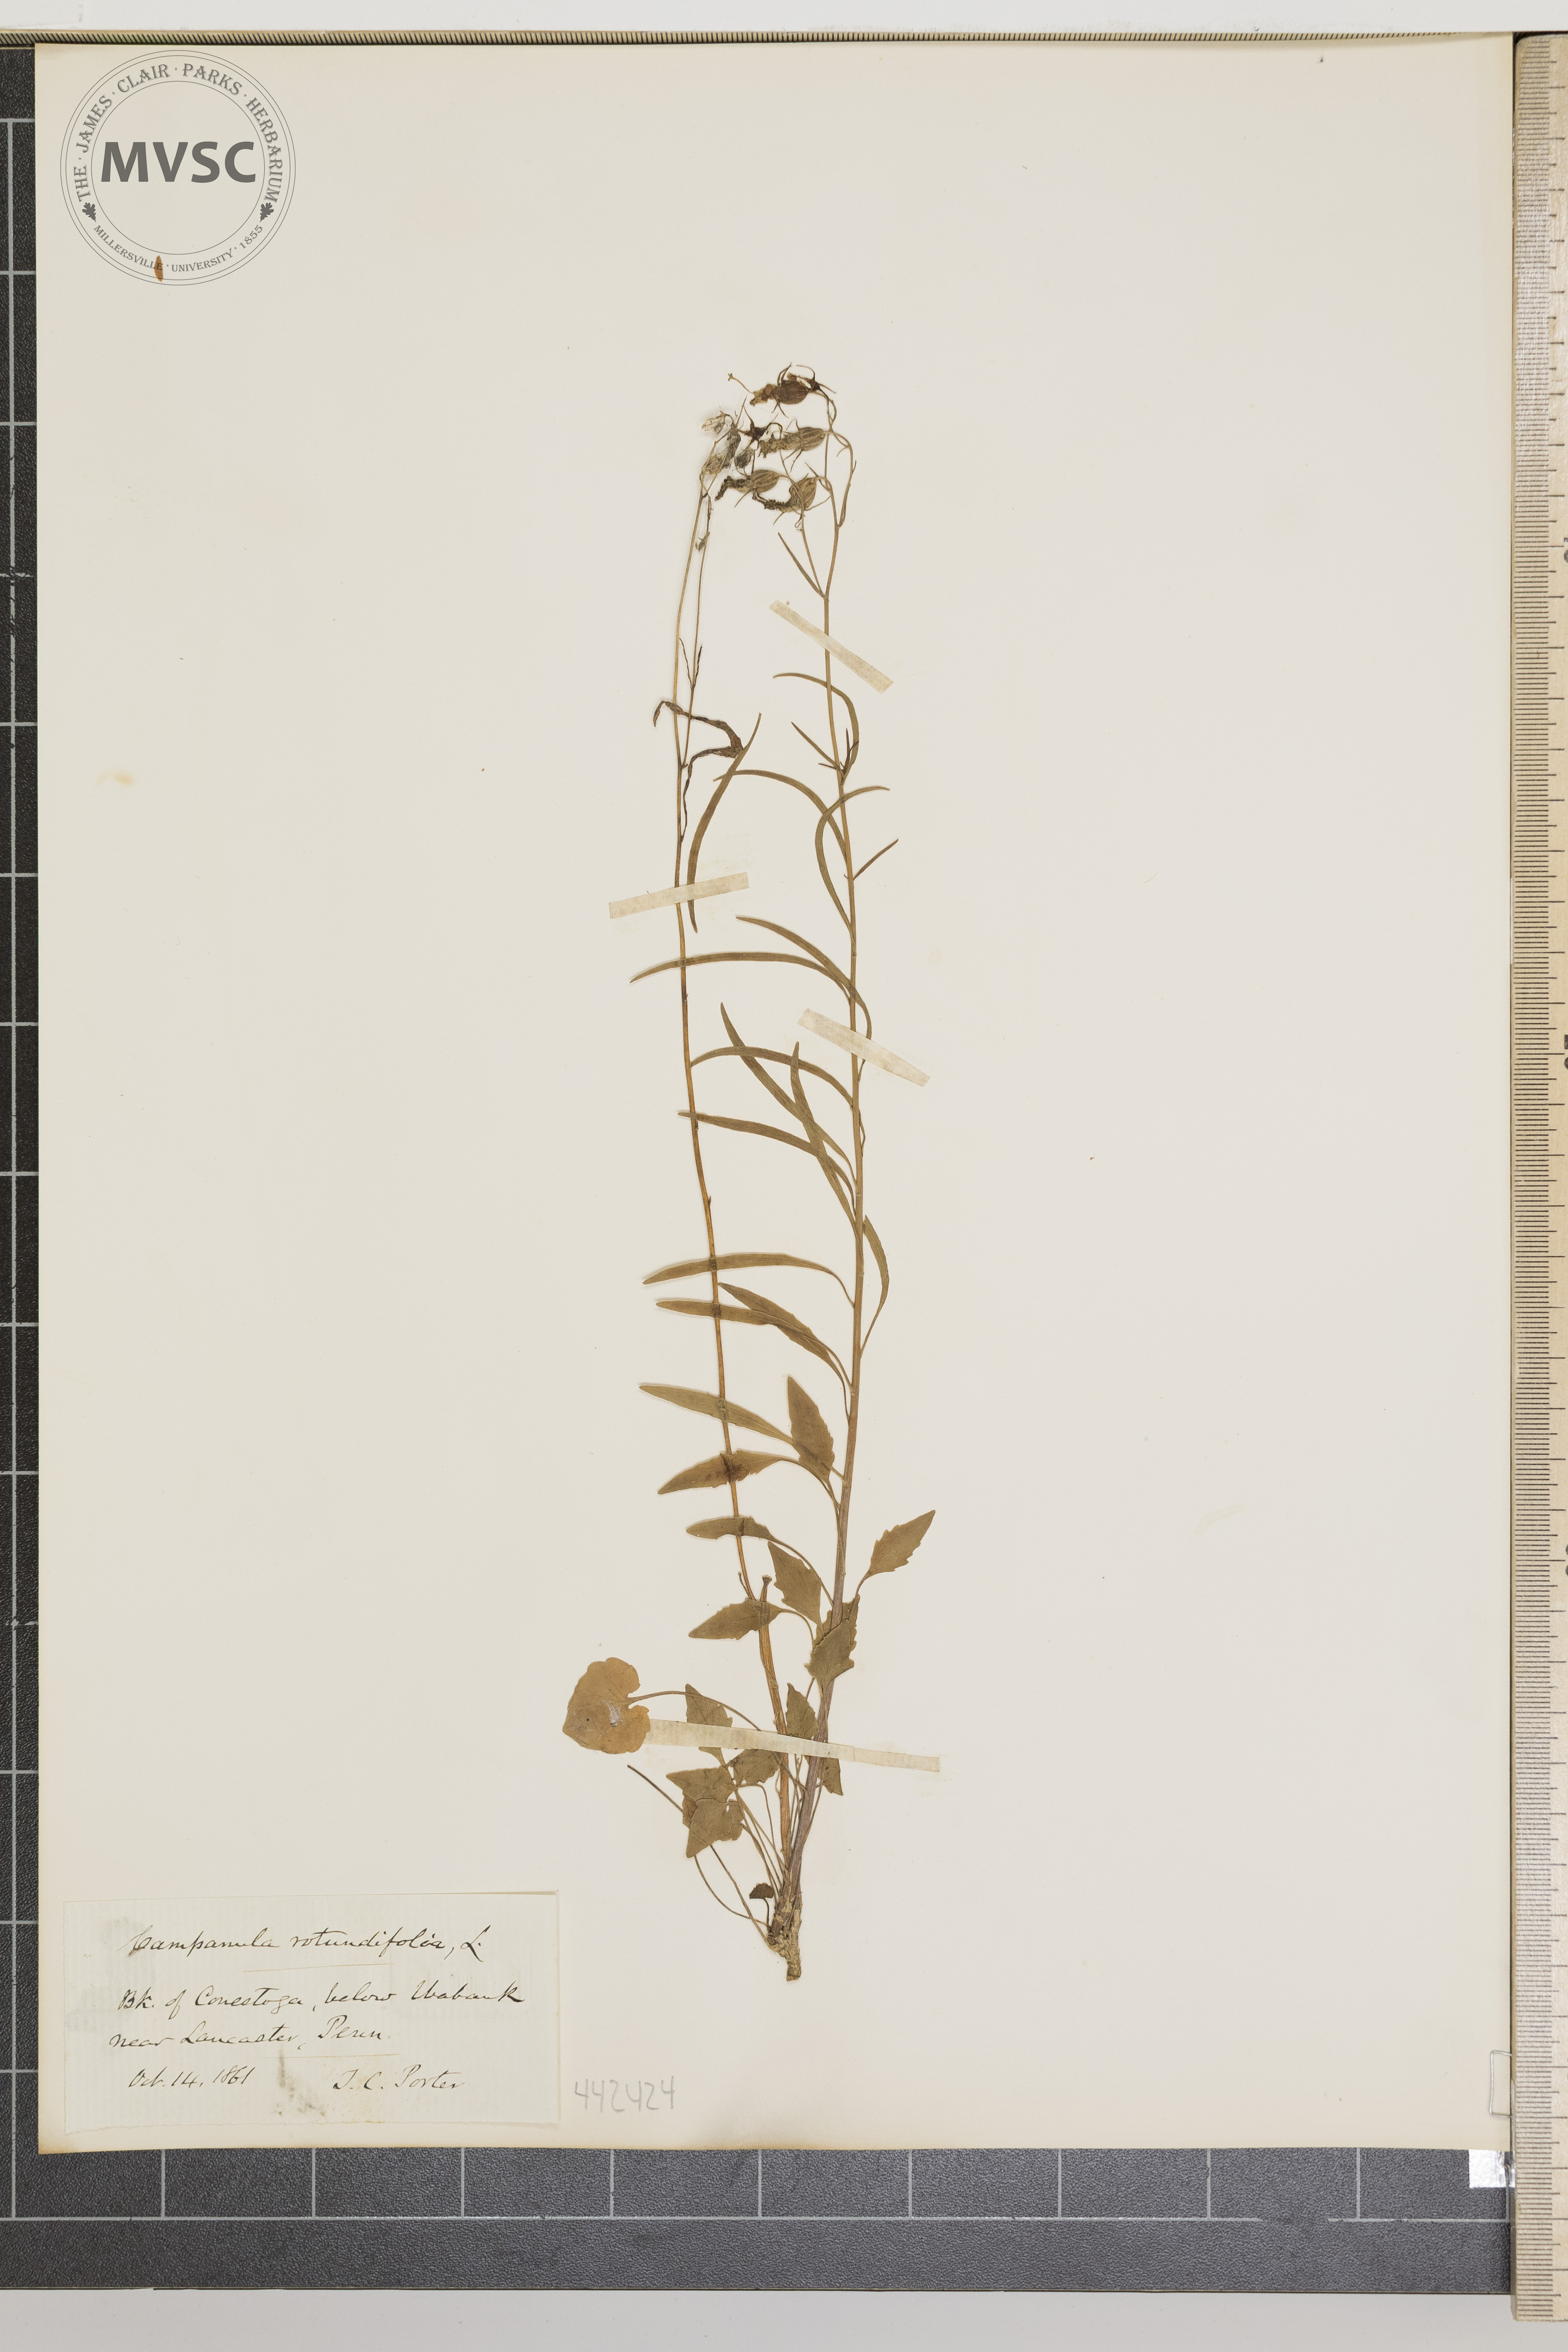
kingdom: Plantae
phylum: Tracheophyta
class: Magnoliopsida
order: Asterales
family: Campanulaceae
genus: Campanula
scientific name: Campanula rotundifolia
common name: Harebell
